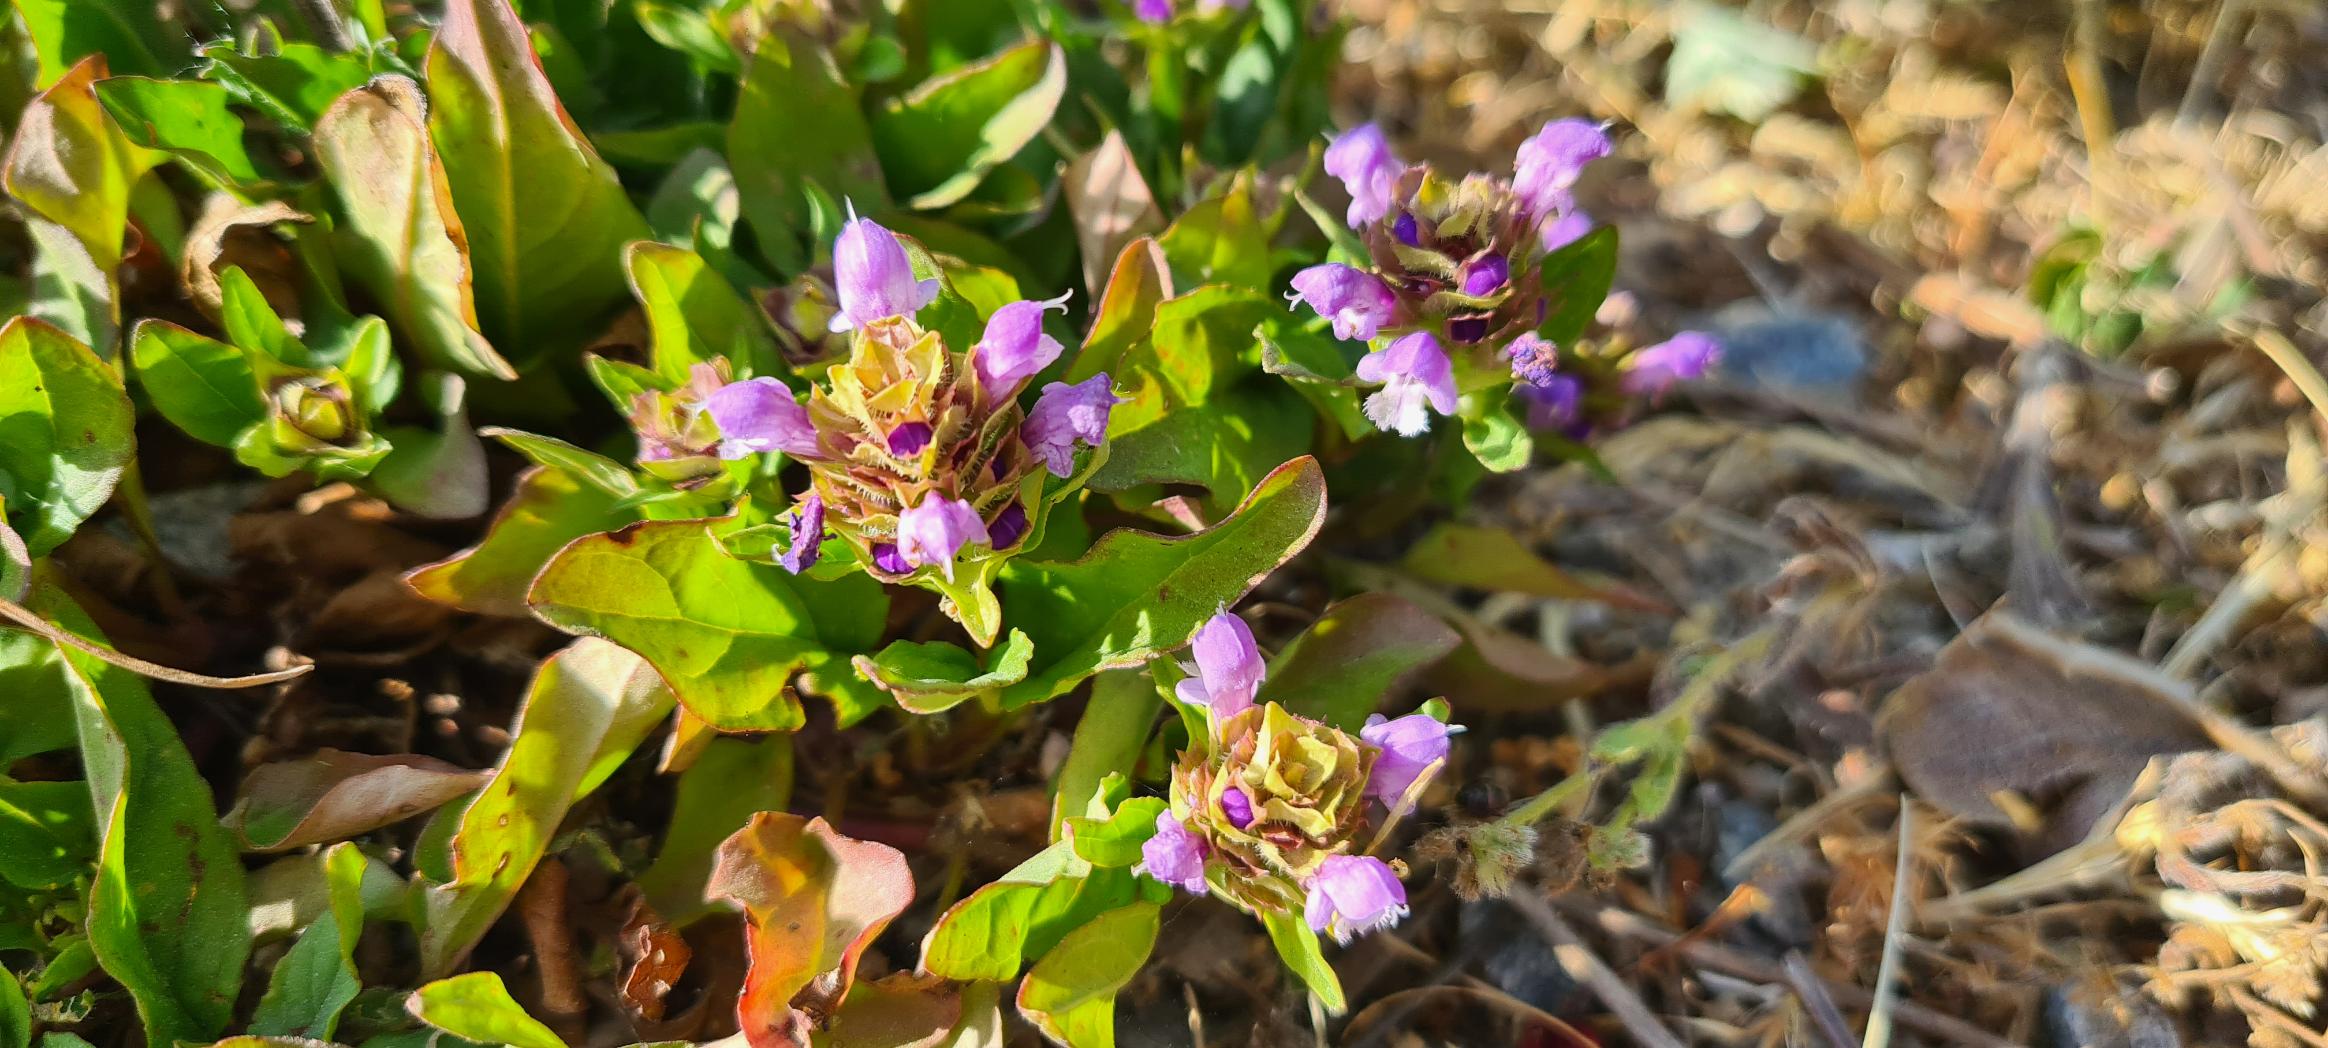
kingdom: Plantae
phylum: Tracheophyta
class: Magnoliopsida
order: Lamiales
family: Lamiaceae
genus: Prunella
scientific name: Prunella vulgaris
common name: Almindelig brunelle
